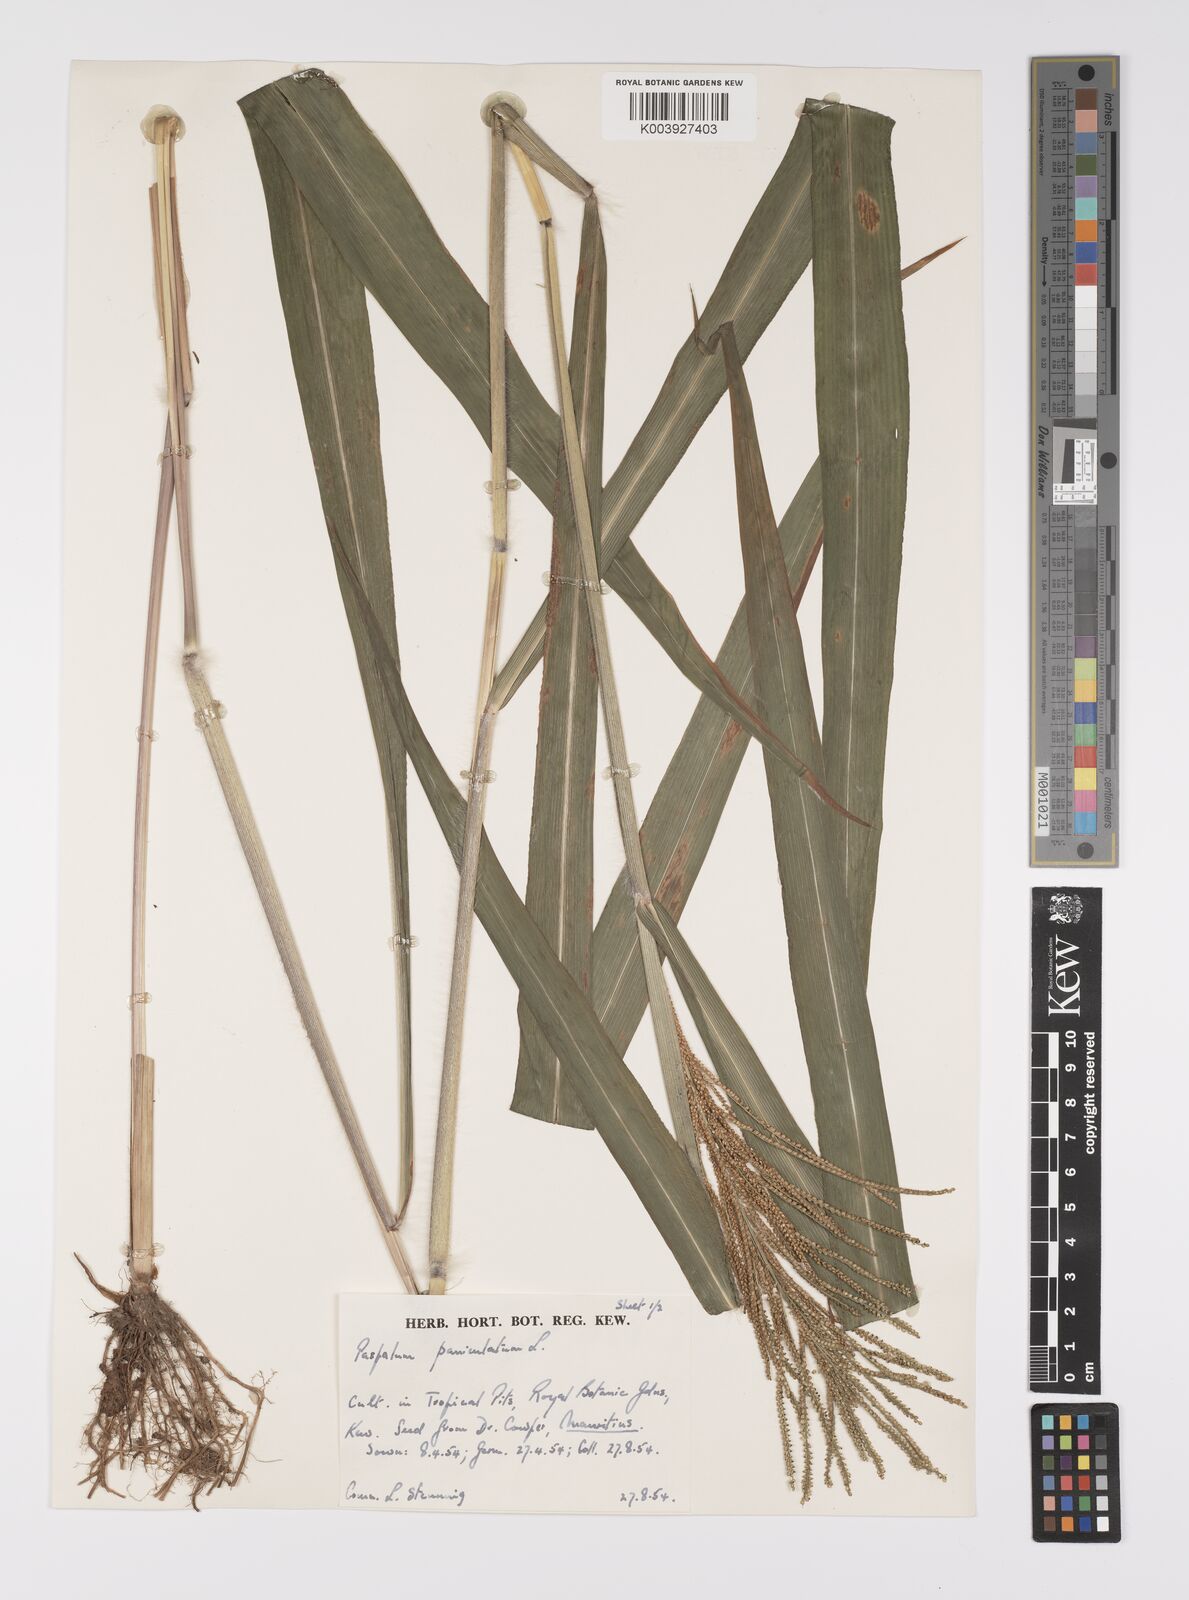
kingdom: Plantae
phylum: Tracheophyta
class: Liliopsida
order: Poales
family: Poaceae
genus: Paspalum
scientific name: Paspalum paniculatum
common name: Arrocillo
